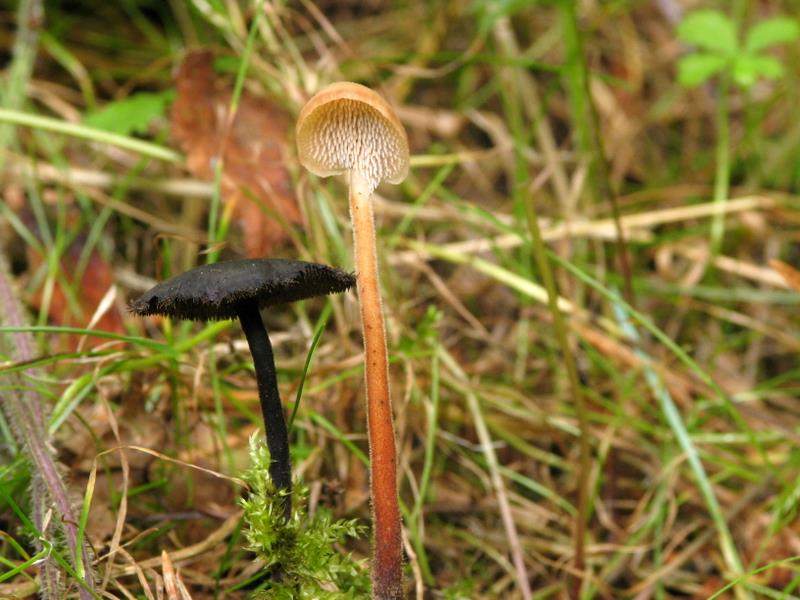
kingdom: Fungi
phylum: Basidiomycota
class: Agaricomycetes
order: Russulales
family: Auriscalpiaceae
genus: Auriscalpium
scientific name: Auriscalpium vulgare
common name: koglepigsvamp
